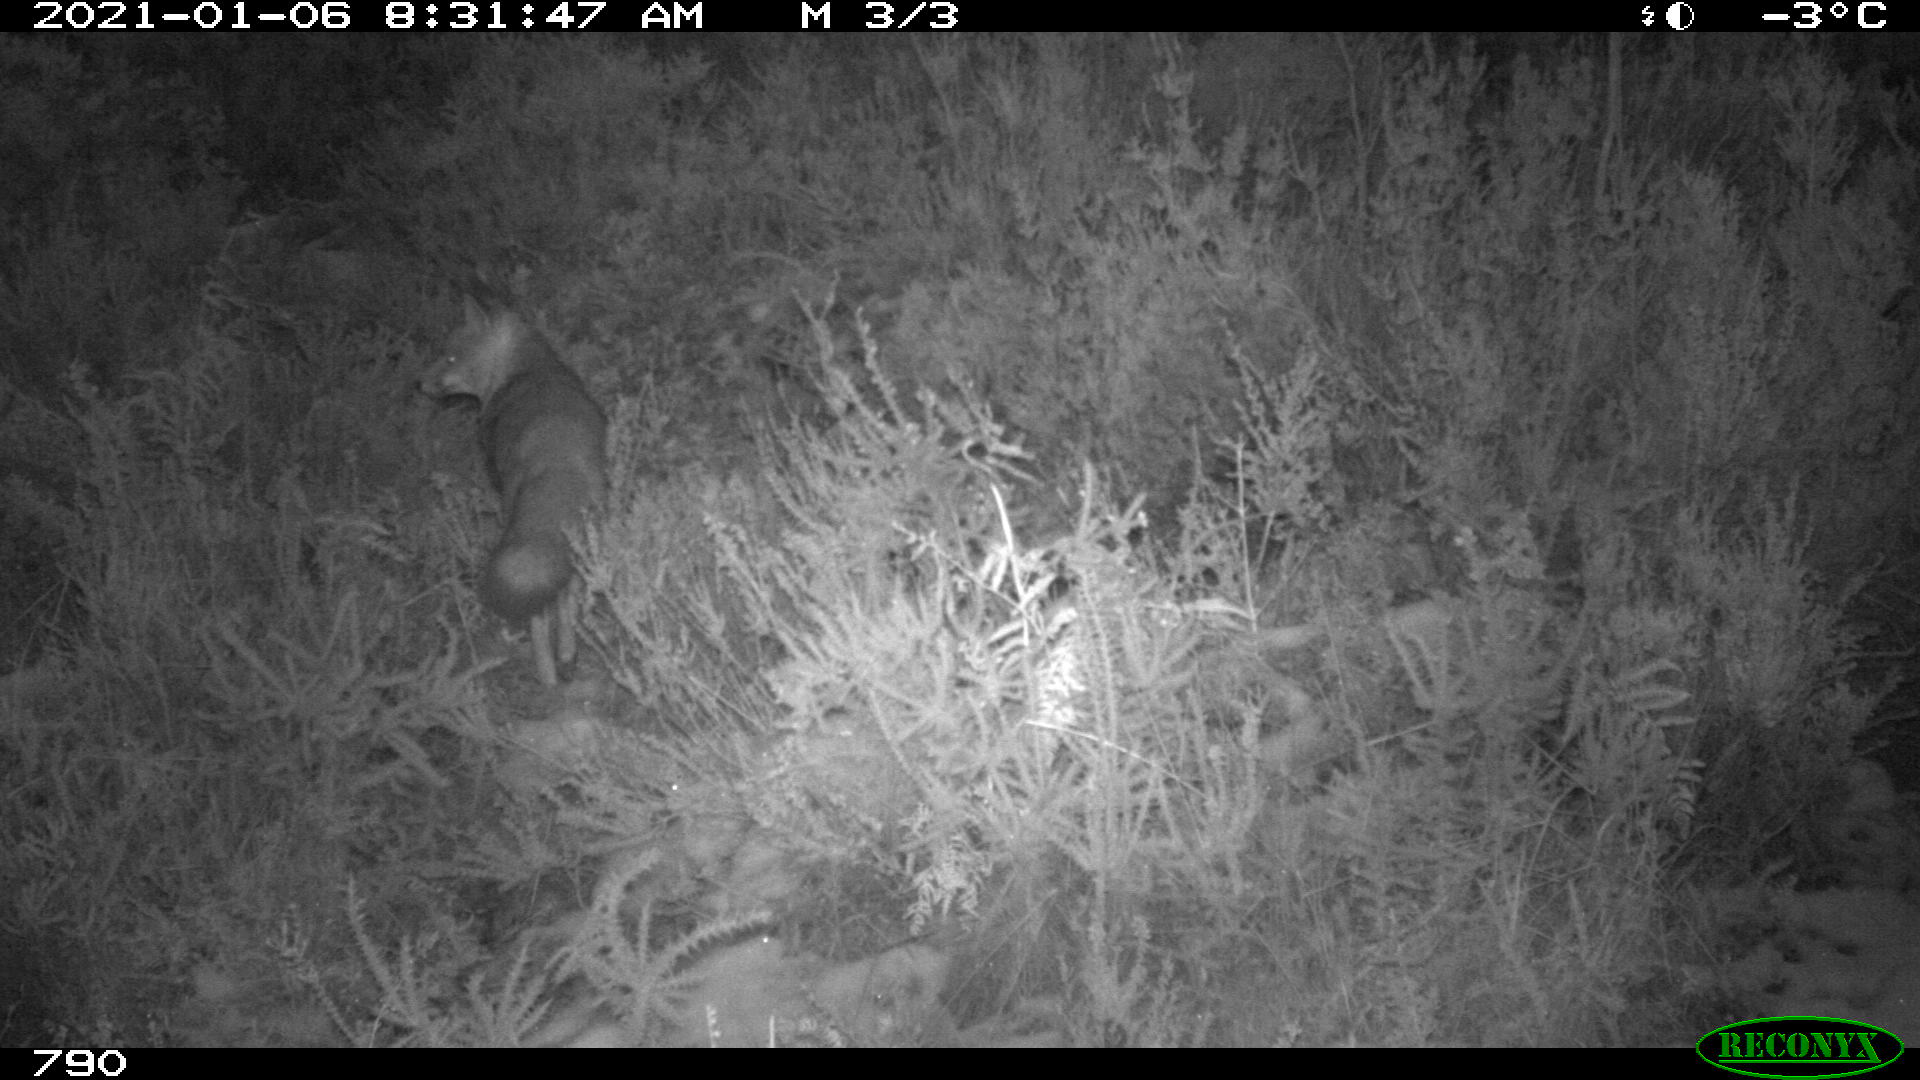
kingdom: Animalia
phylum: Chordata
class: Mammalia
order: Carnivora
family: Canidae
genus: Vulpes
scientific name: Vulpes vulpes
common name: Red fox
